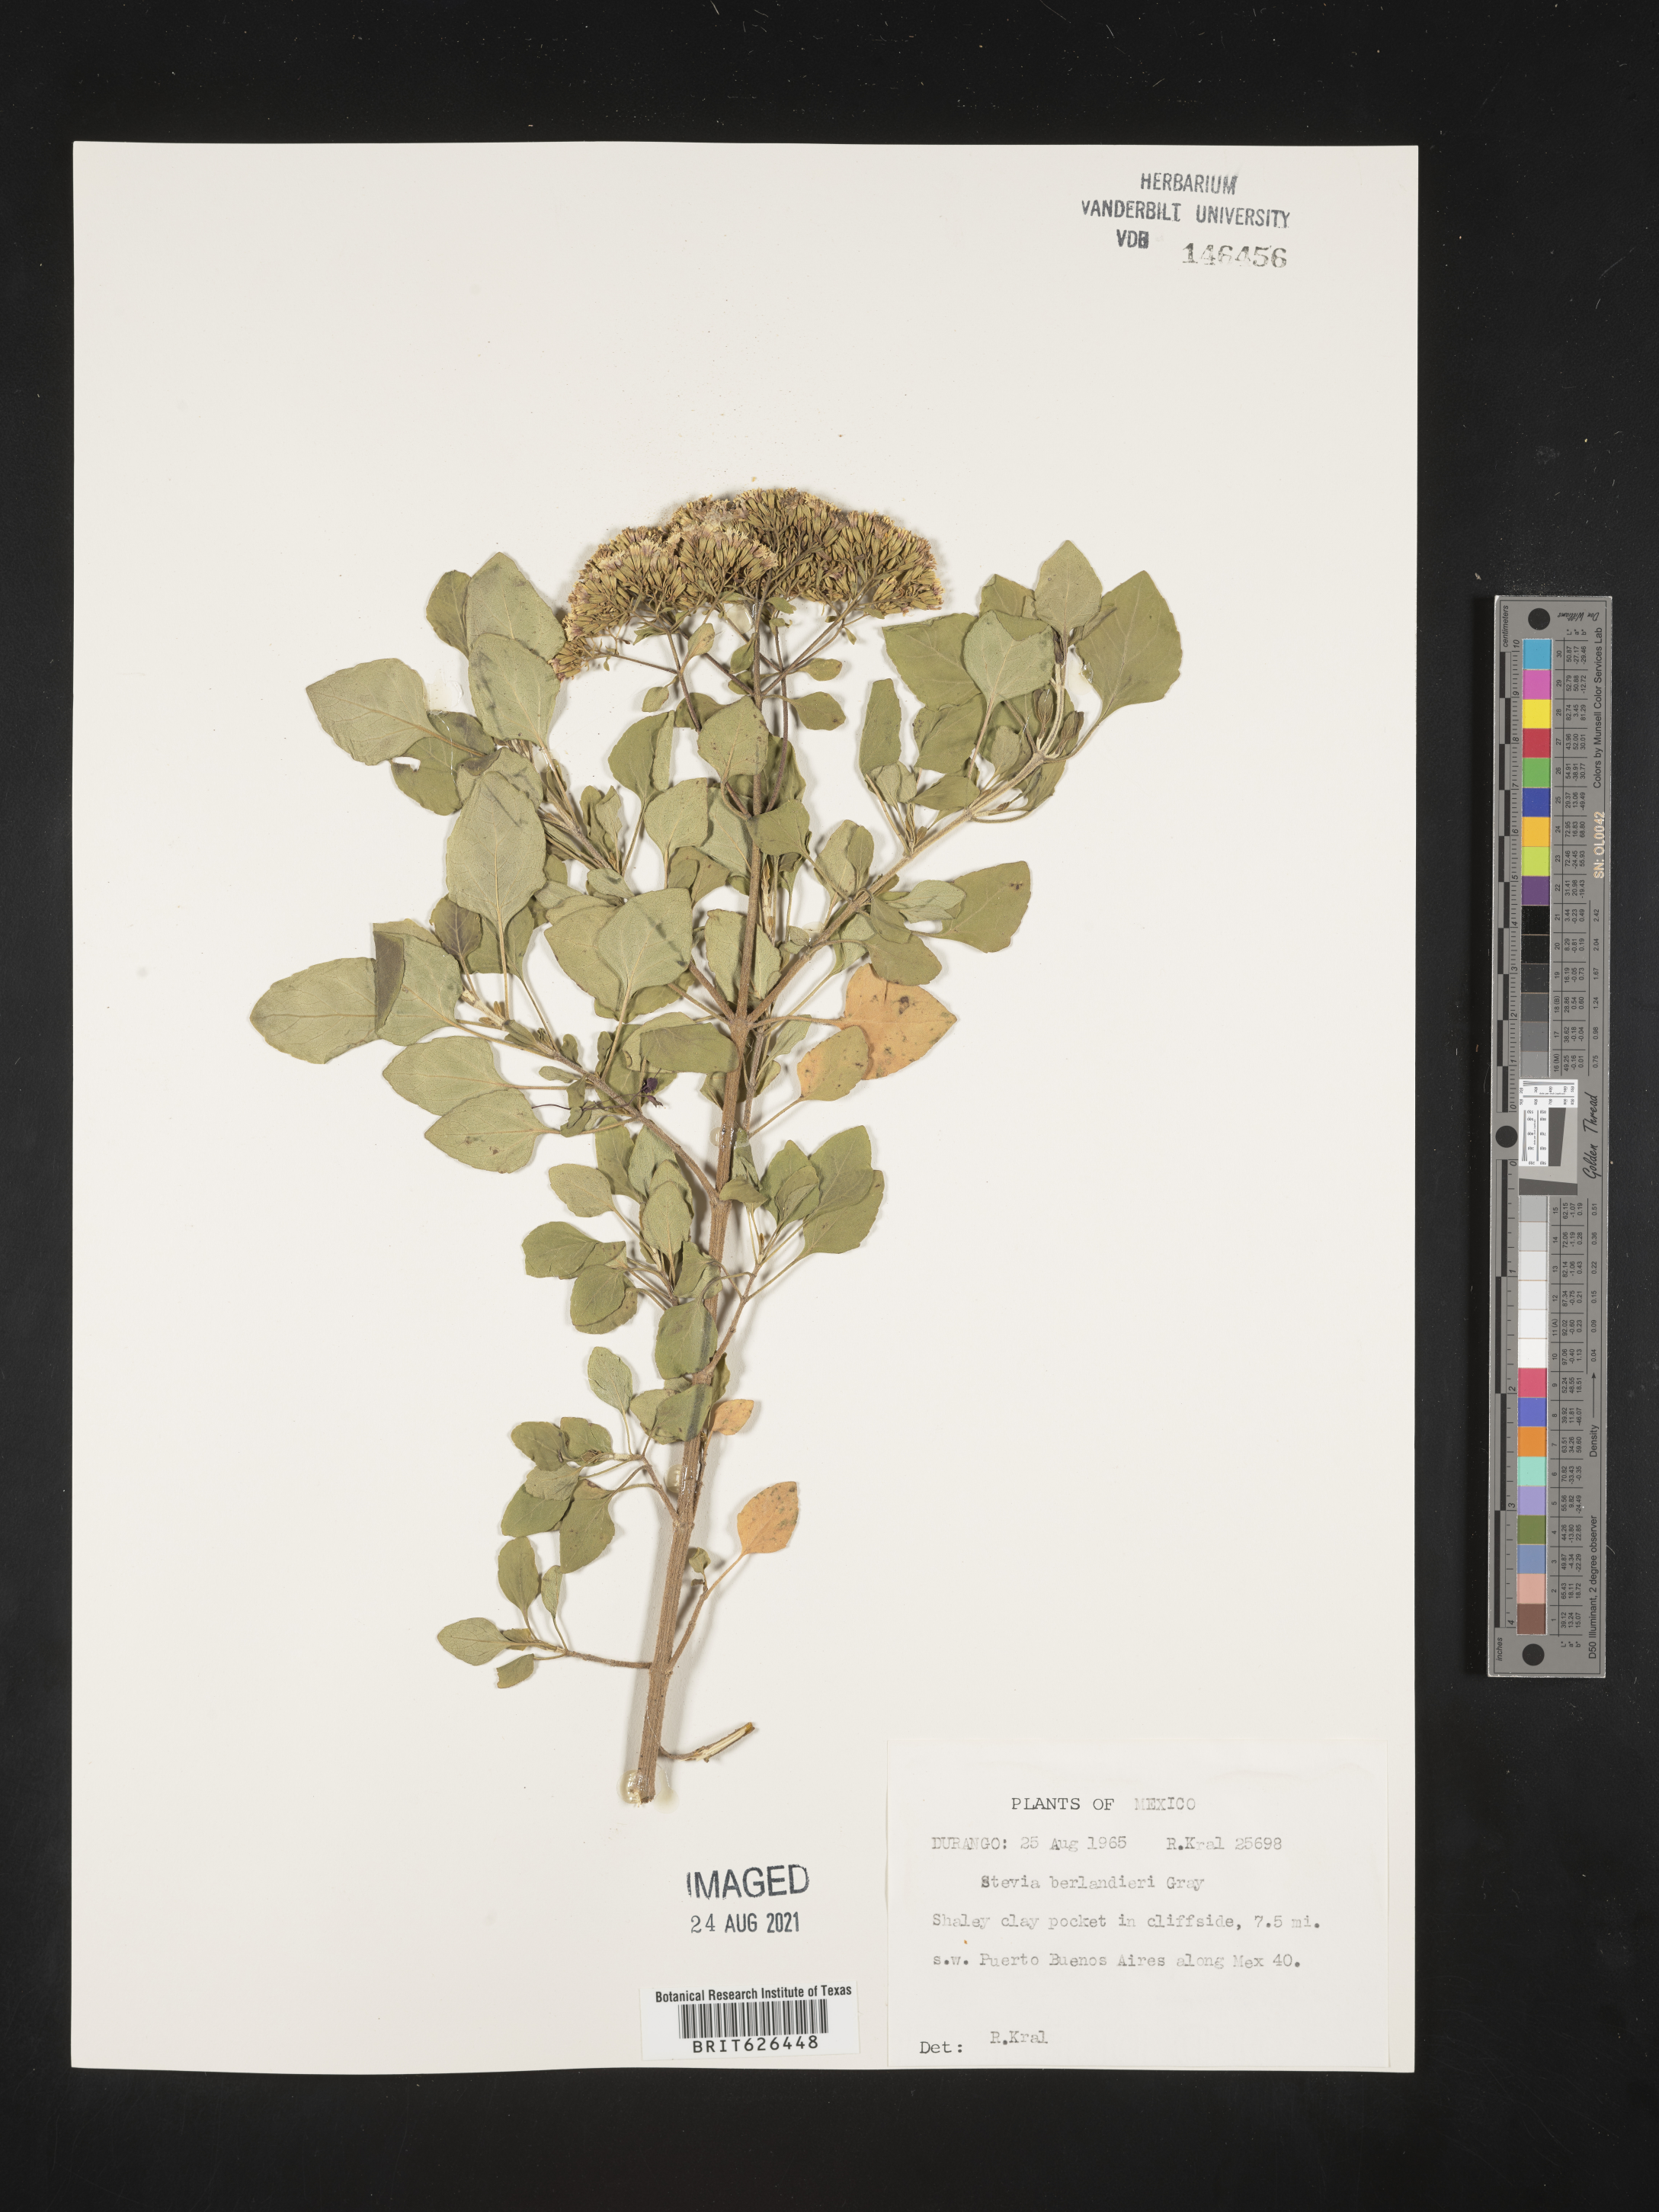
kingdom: Plantae
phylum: Tracheophyta
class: Magnoliopsida
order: Asterales
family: Asteraceae
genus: Stevia
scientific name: Stevia
